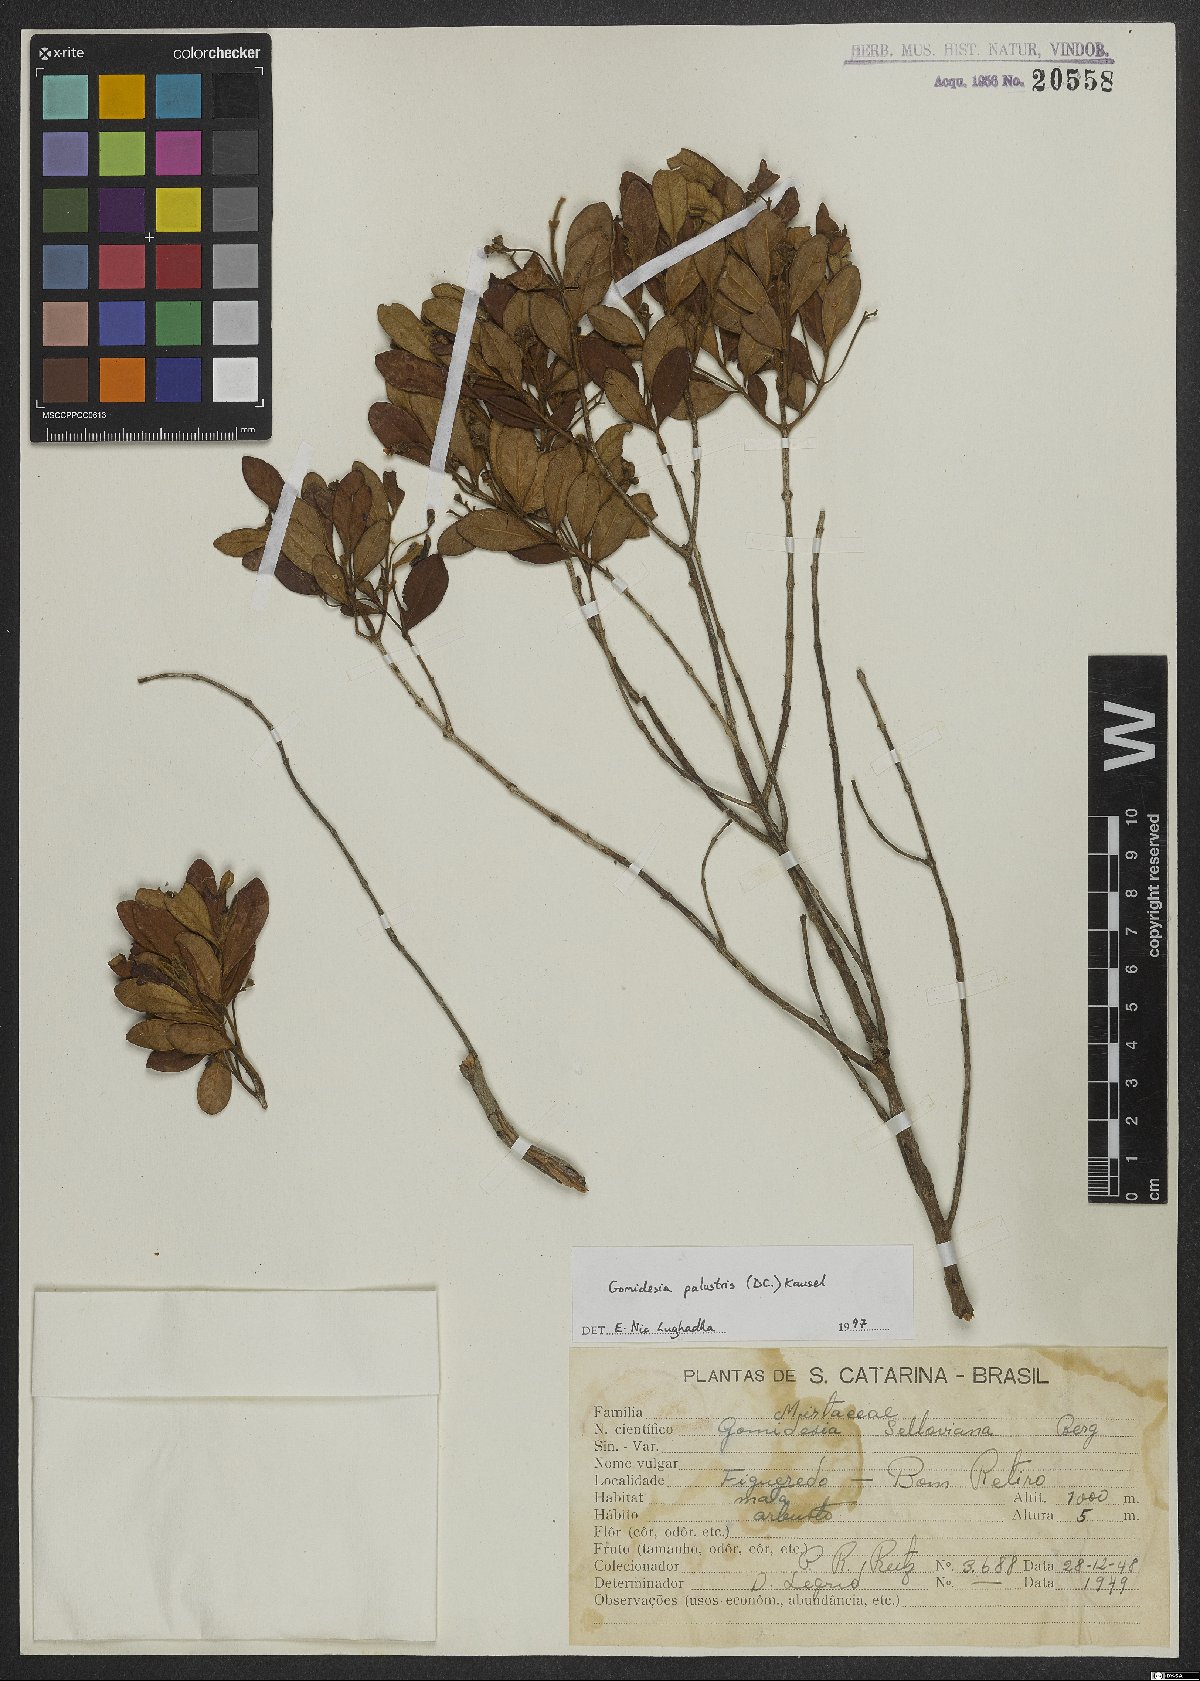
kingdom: Plantae
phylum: Tracheophyta
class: Magnoliopsida
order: Myrtales
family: Myrtaceae
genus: Myrcia
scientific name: Myrcia palustris
